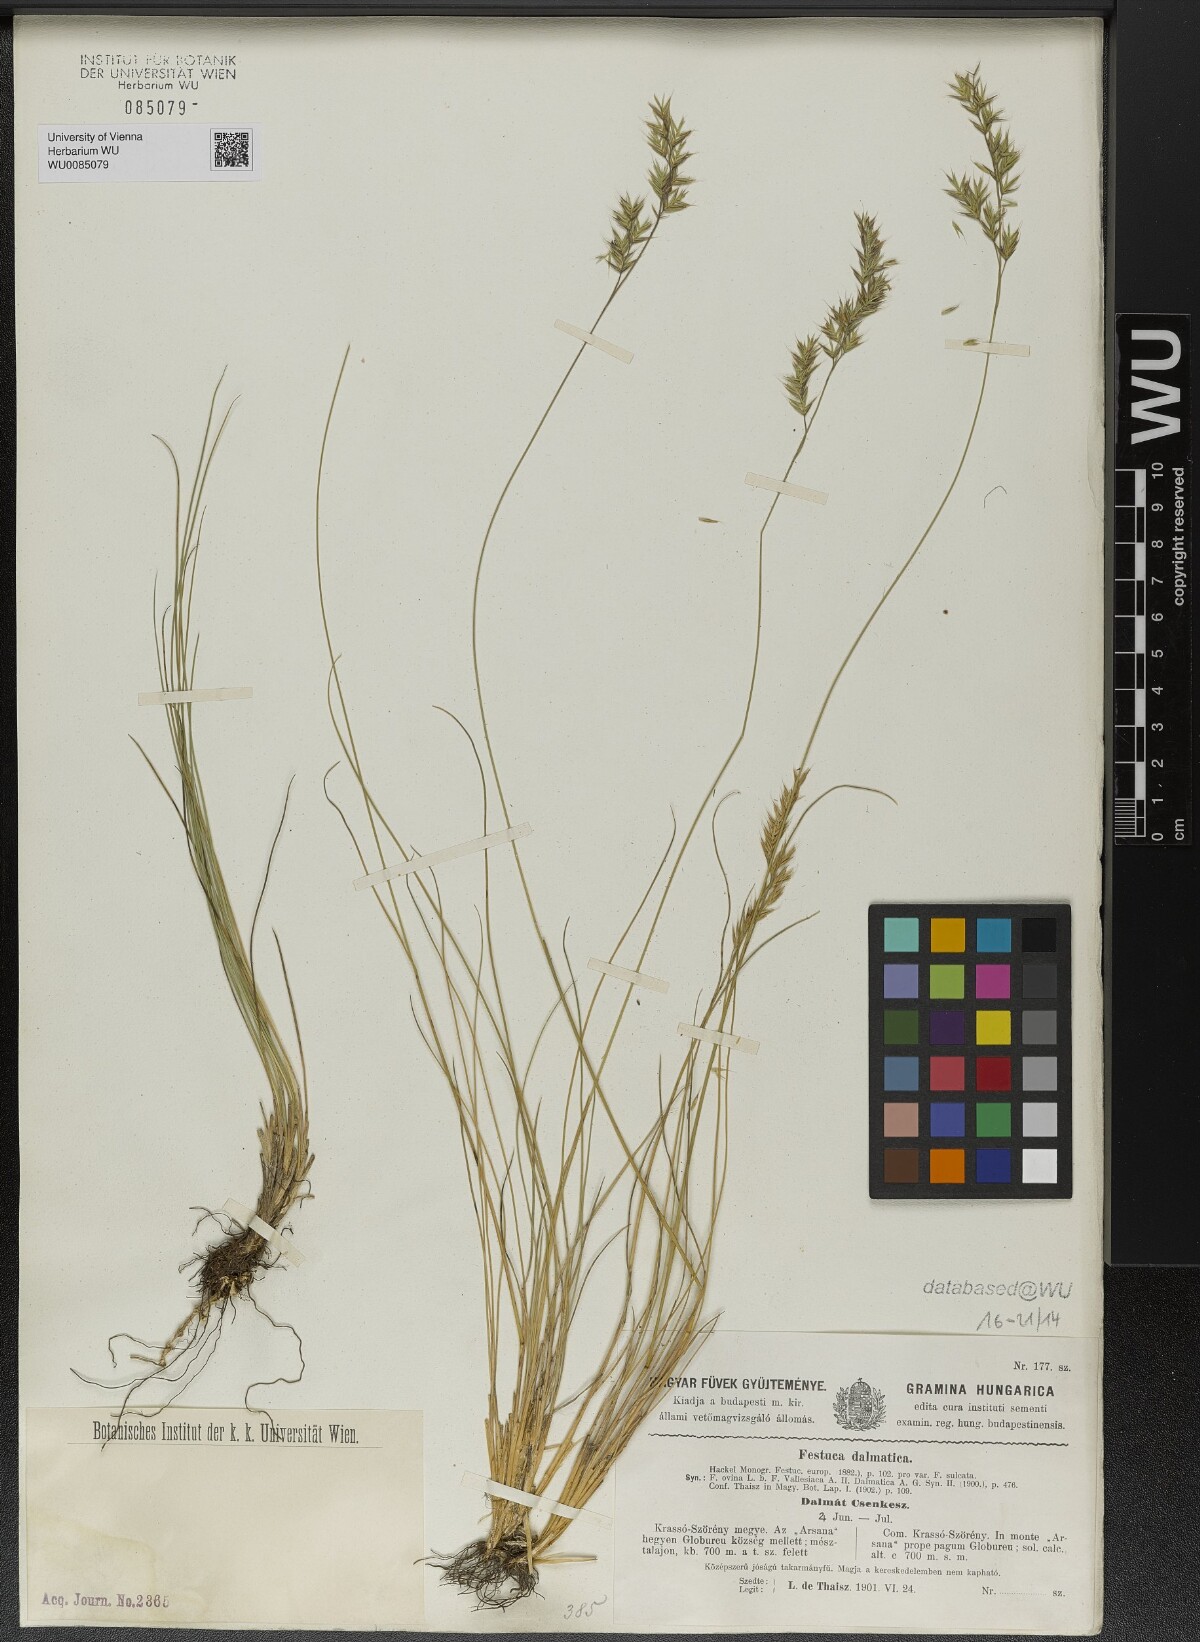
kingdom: Plantae
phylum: Tracheophyta
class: Liliopsida
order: Poales
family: Poaceae
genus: Festuca
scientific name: Festuca dalmatica
